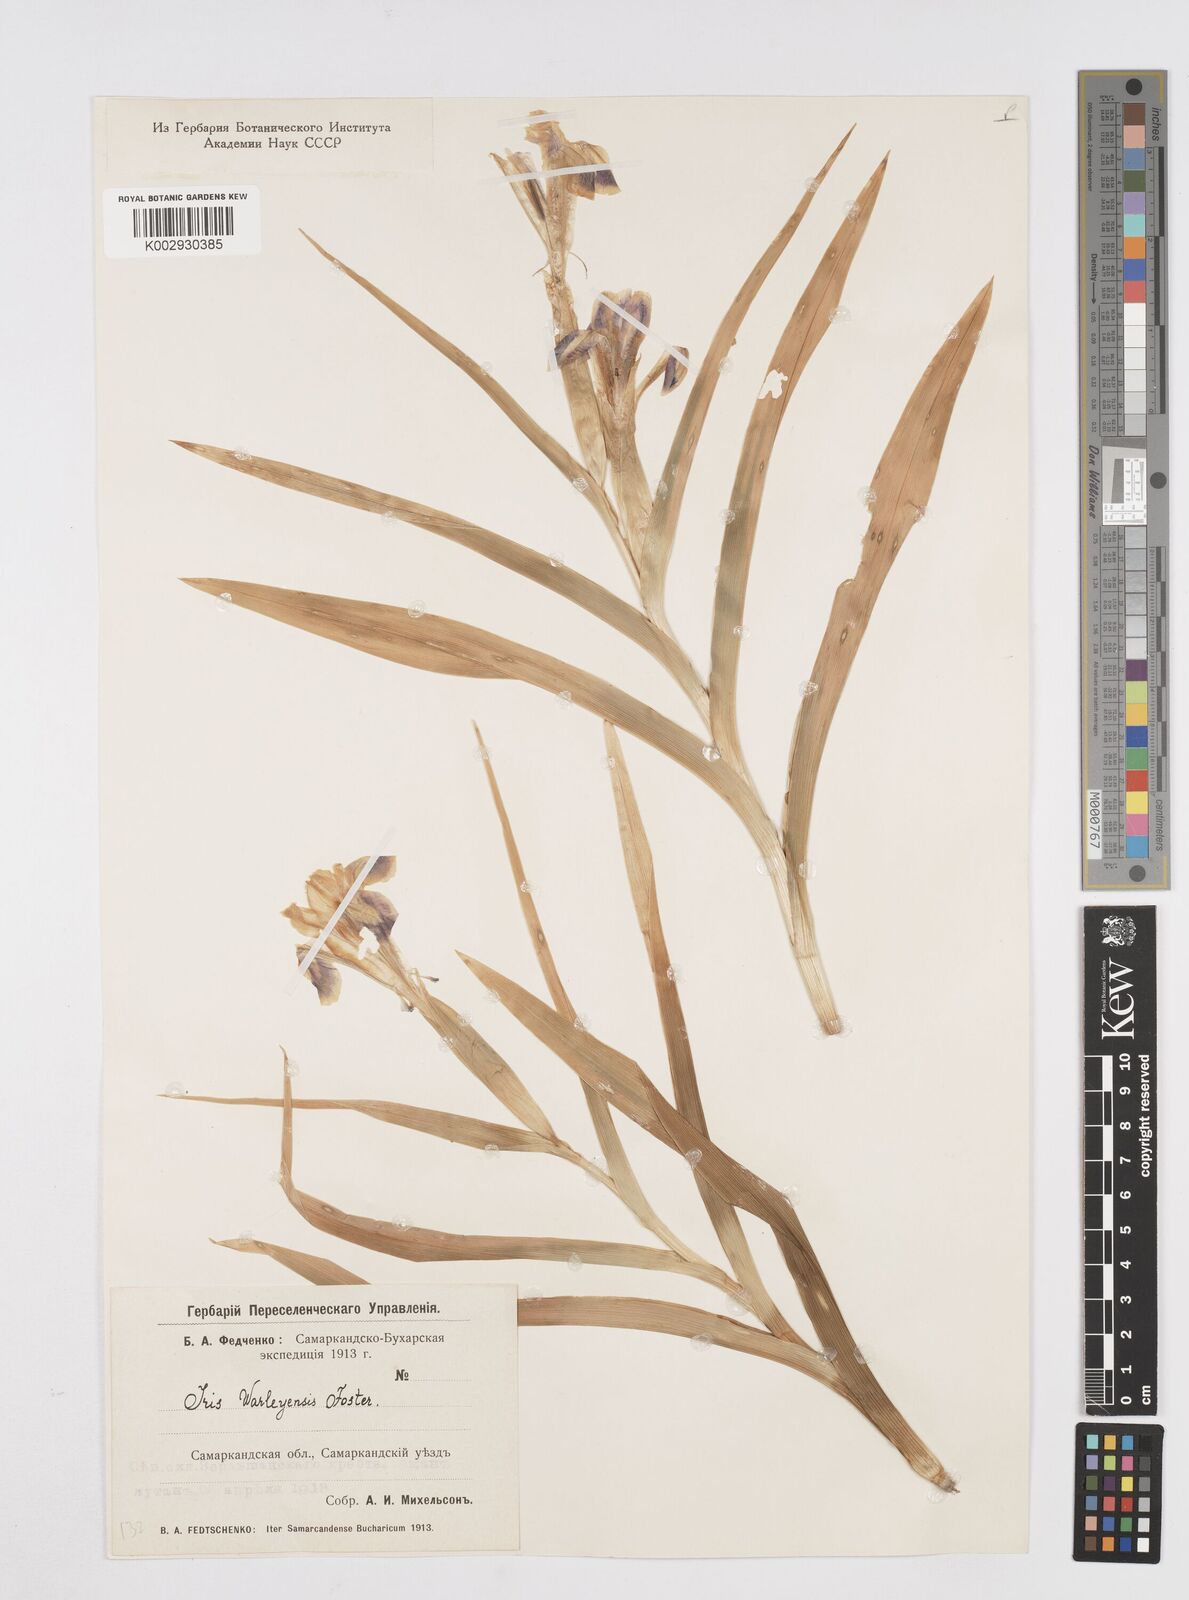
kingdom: Plantae
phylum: Tracheophyta
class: Liliopsida
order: Asparagales
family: Iridaceae
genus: Iris
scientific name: Iris warleyensis
